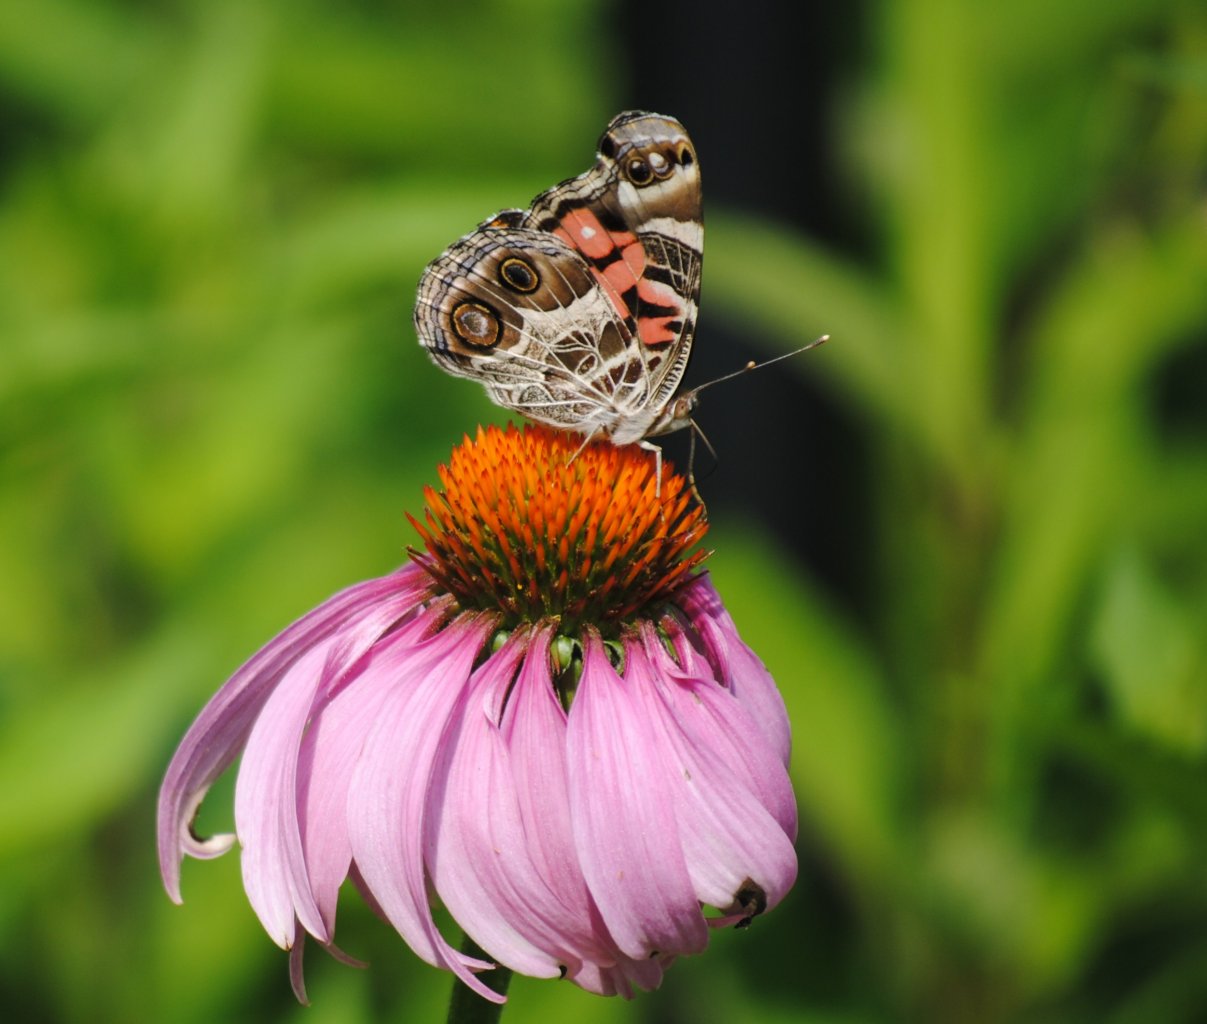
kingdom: Animalia
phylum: Arthropoda
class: Insecta
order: Lepidoptera
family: Nymphalidae
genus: Vanessa
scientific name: Vanessa virginiensis
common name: American Lady
